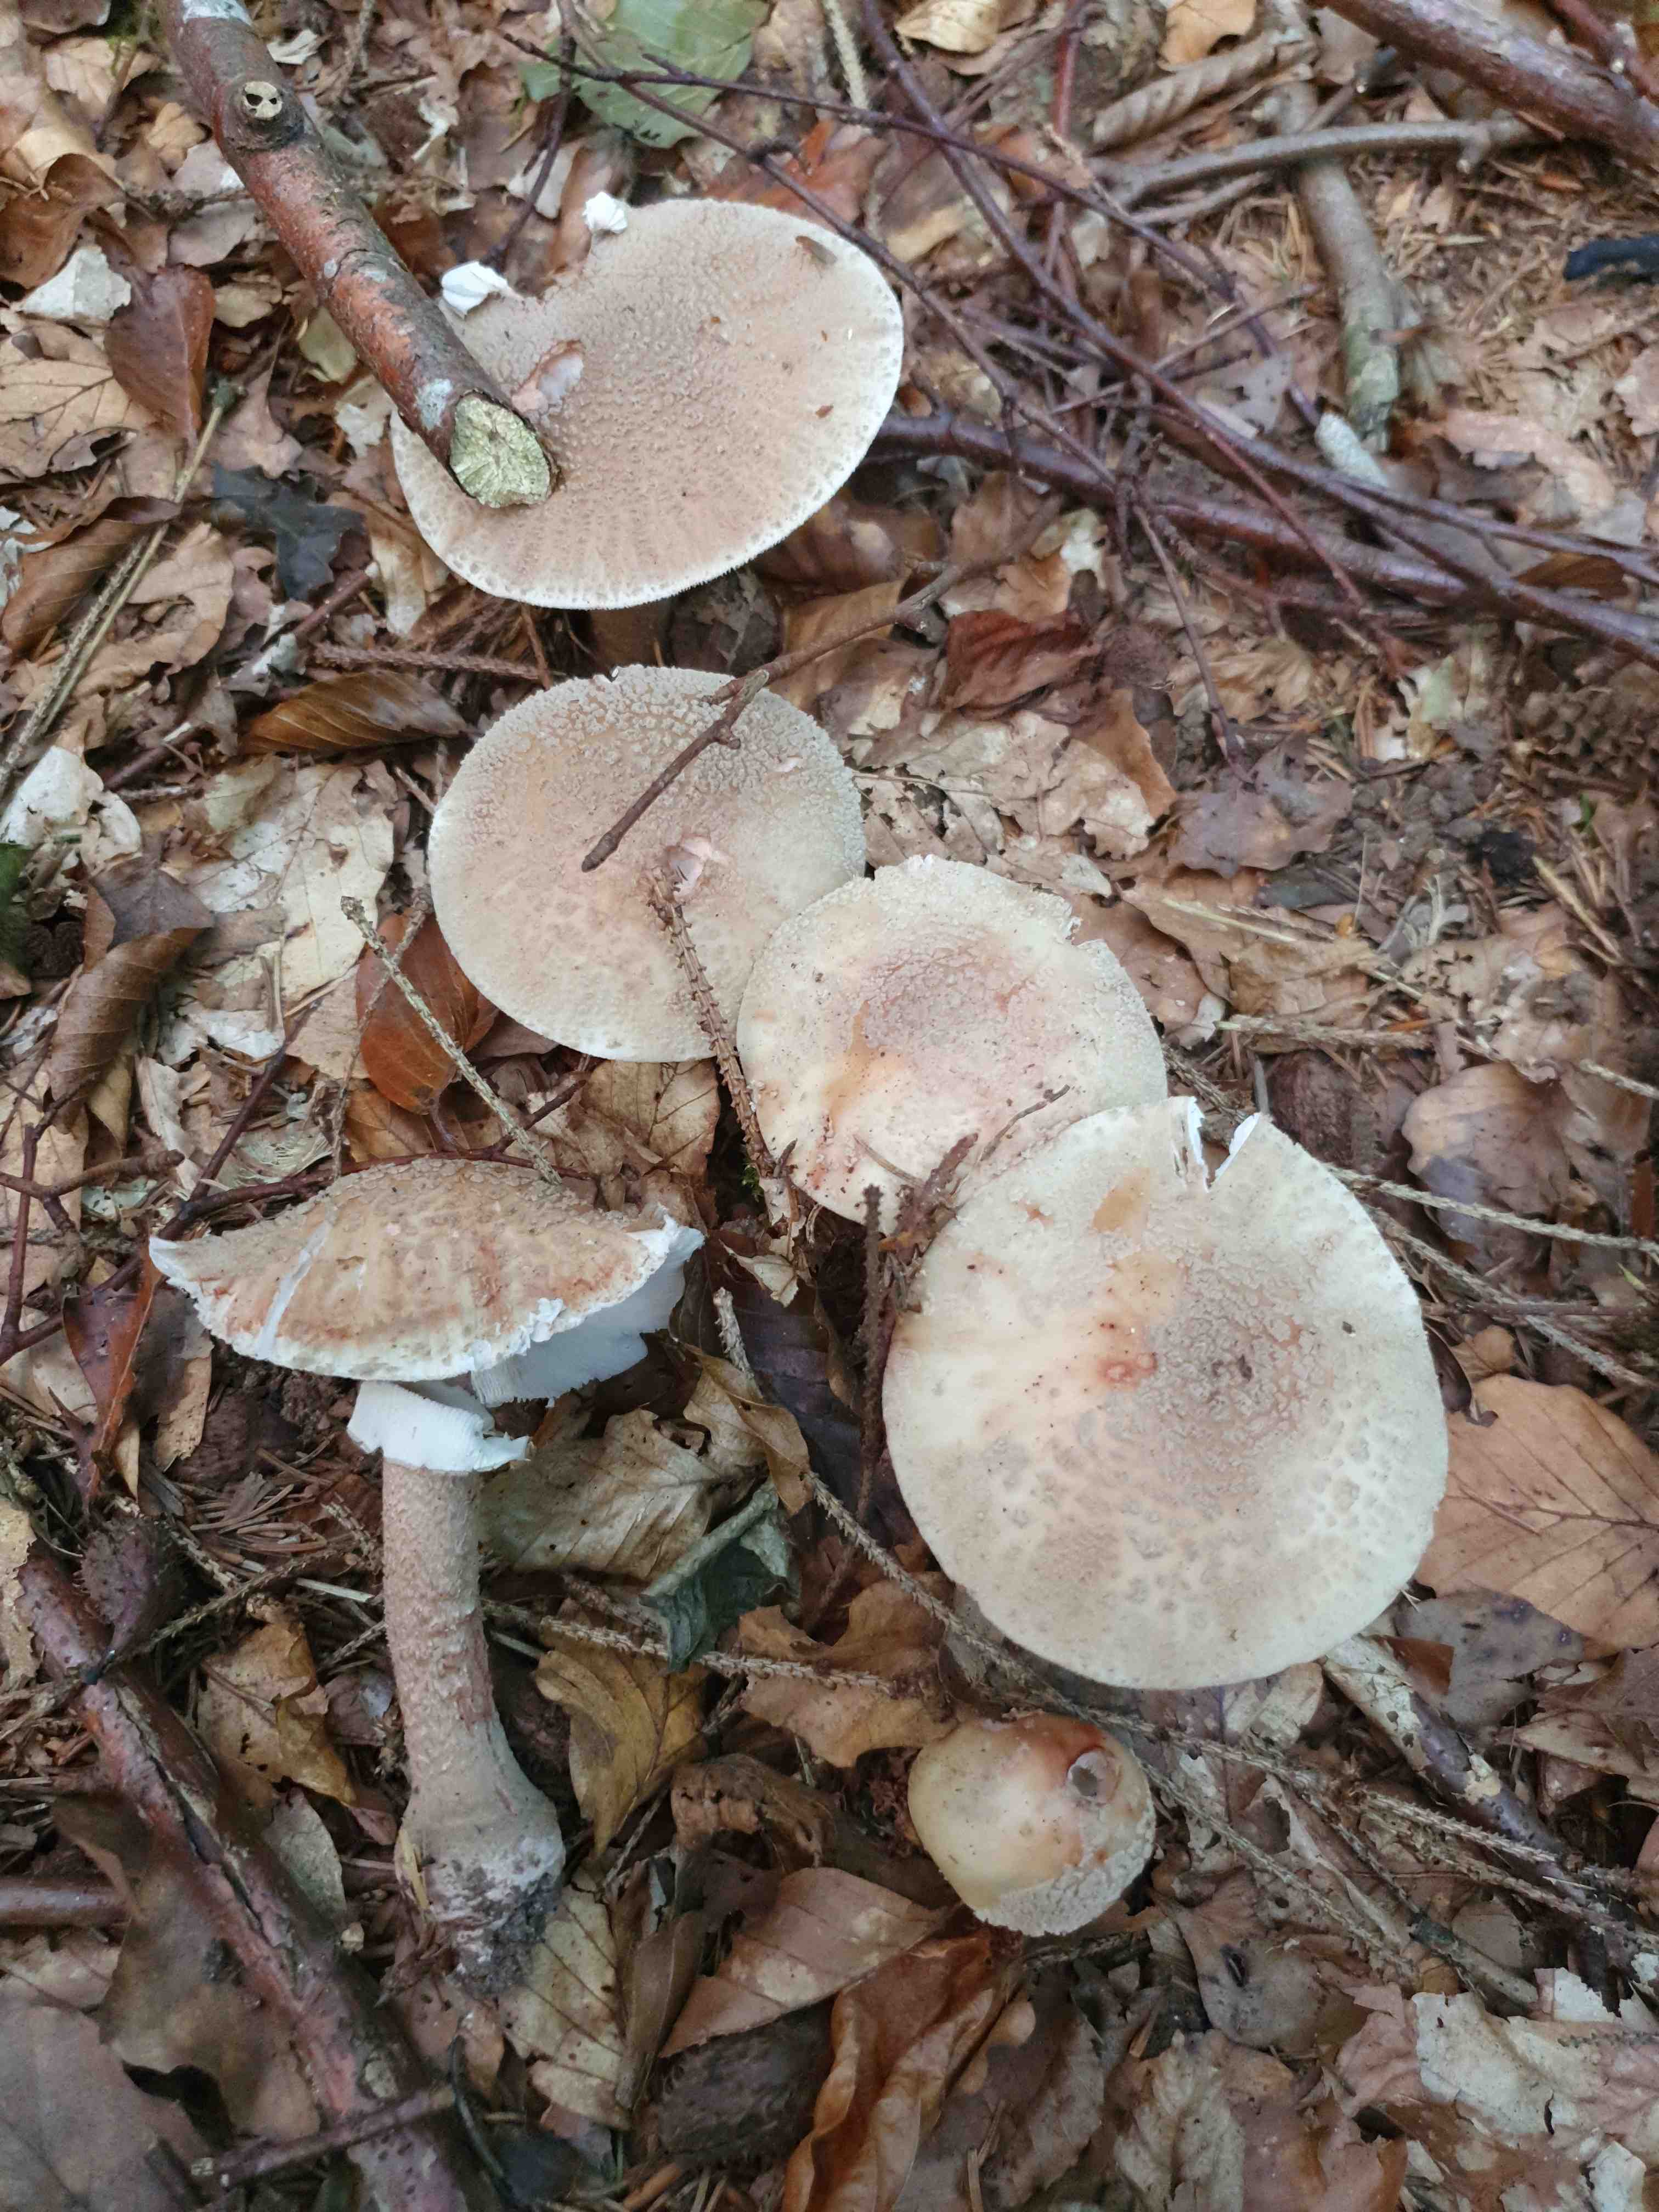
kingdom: Fungi
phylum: Basidiomycota
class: Agaricomycetes
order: Agaricales
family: Amanitaceae
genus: Amanita
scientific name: Amanita rubescens
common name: rødmende fluesvamp
